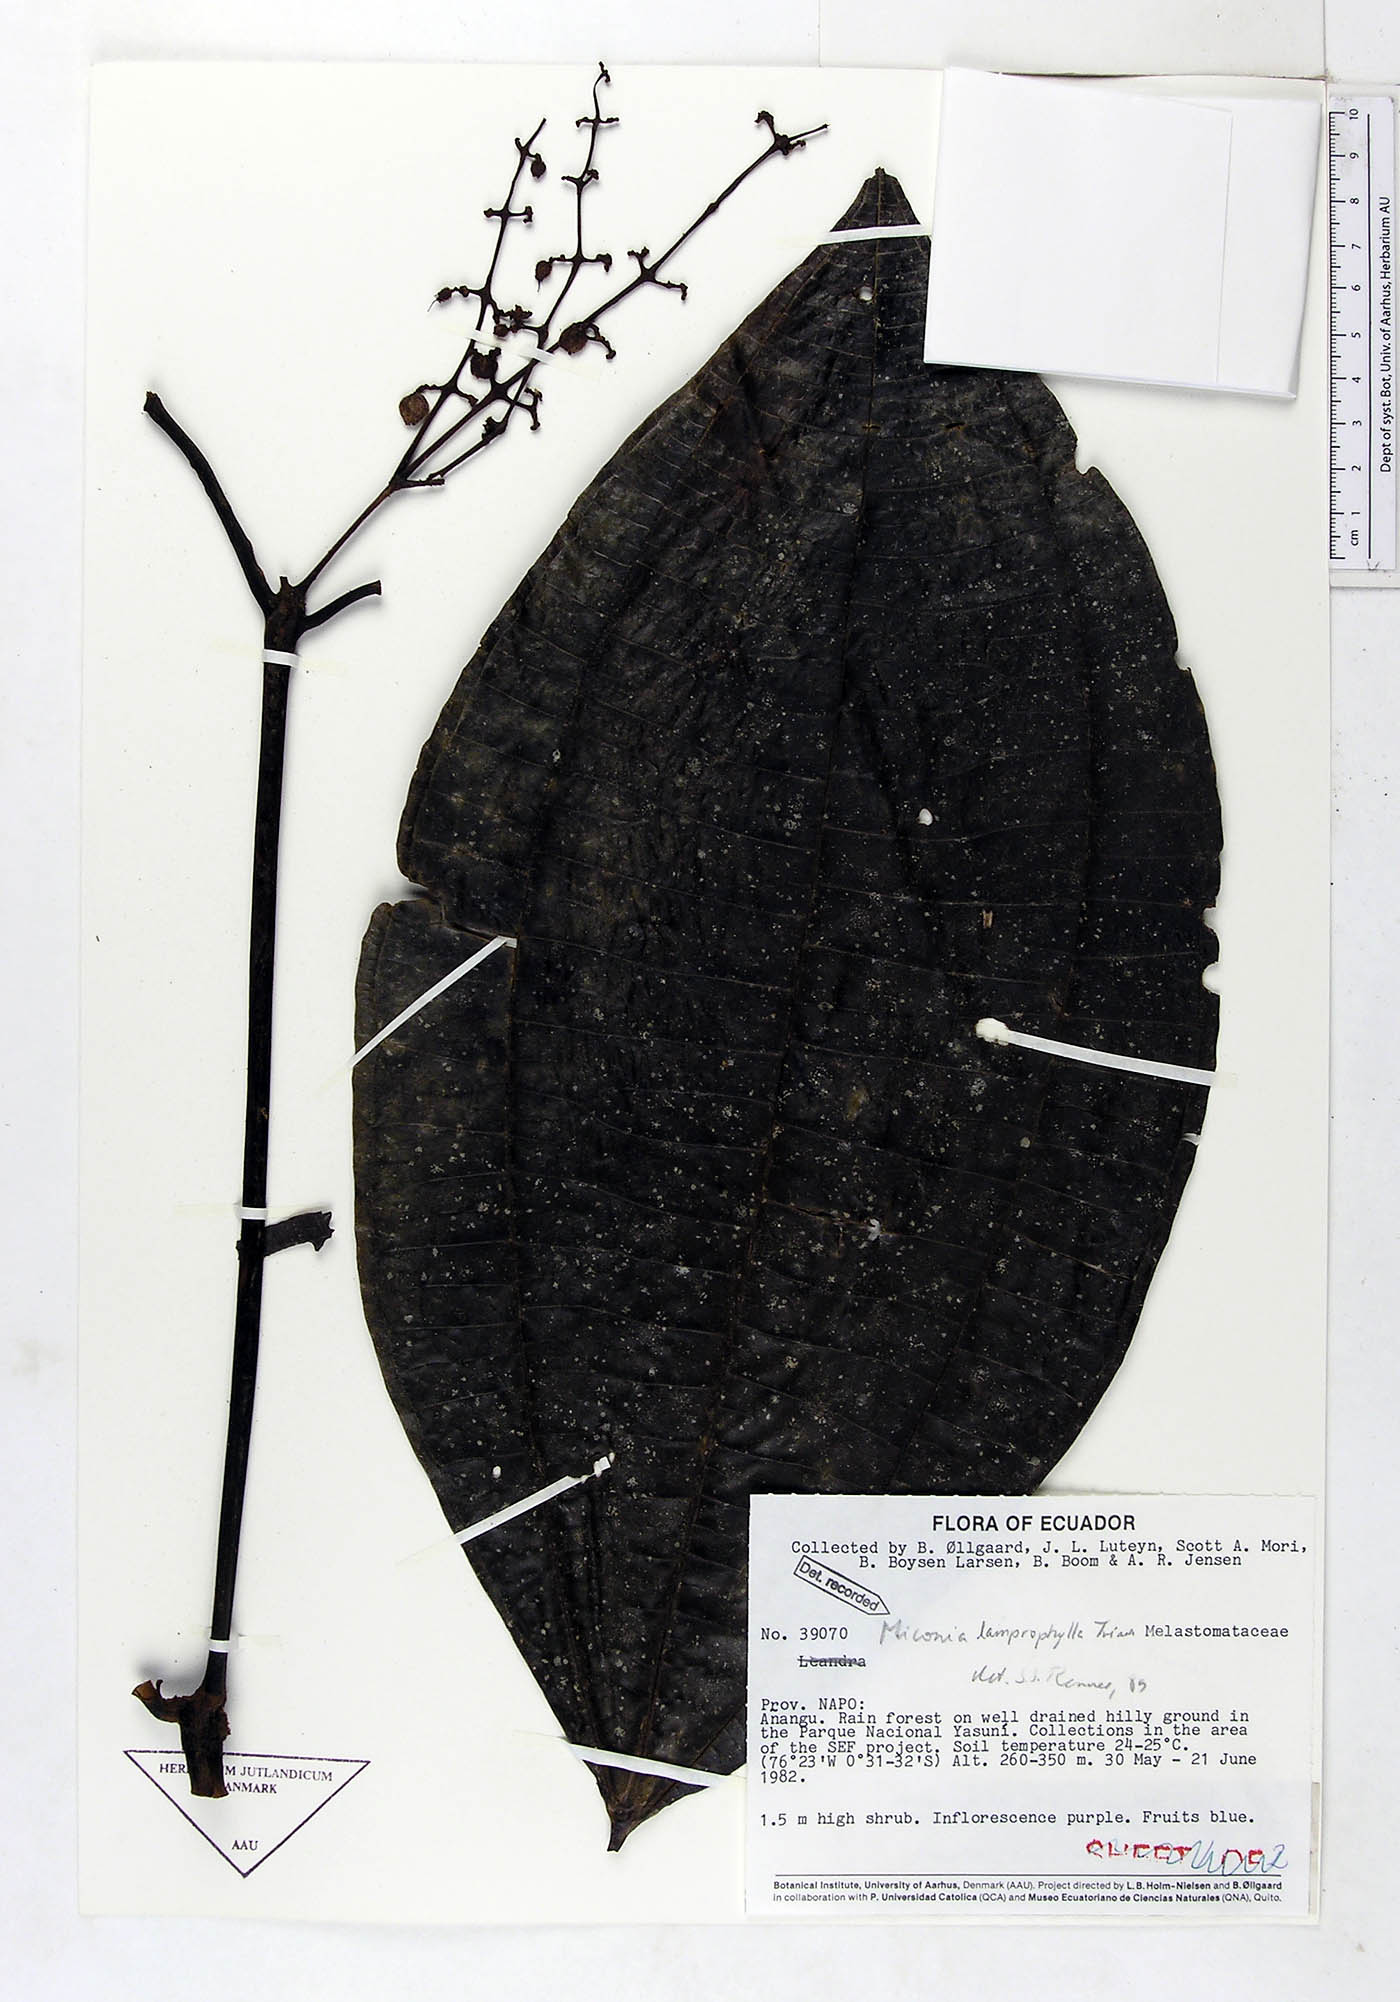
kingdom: Plantae
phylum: Tracheophyta
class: Magnoliopsida
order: Myrtales
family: Melastomataceae
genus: Miconia
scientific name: Miconia lamprophylla
